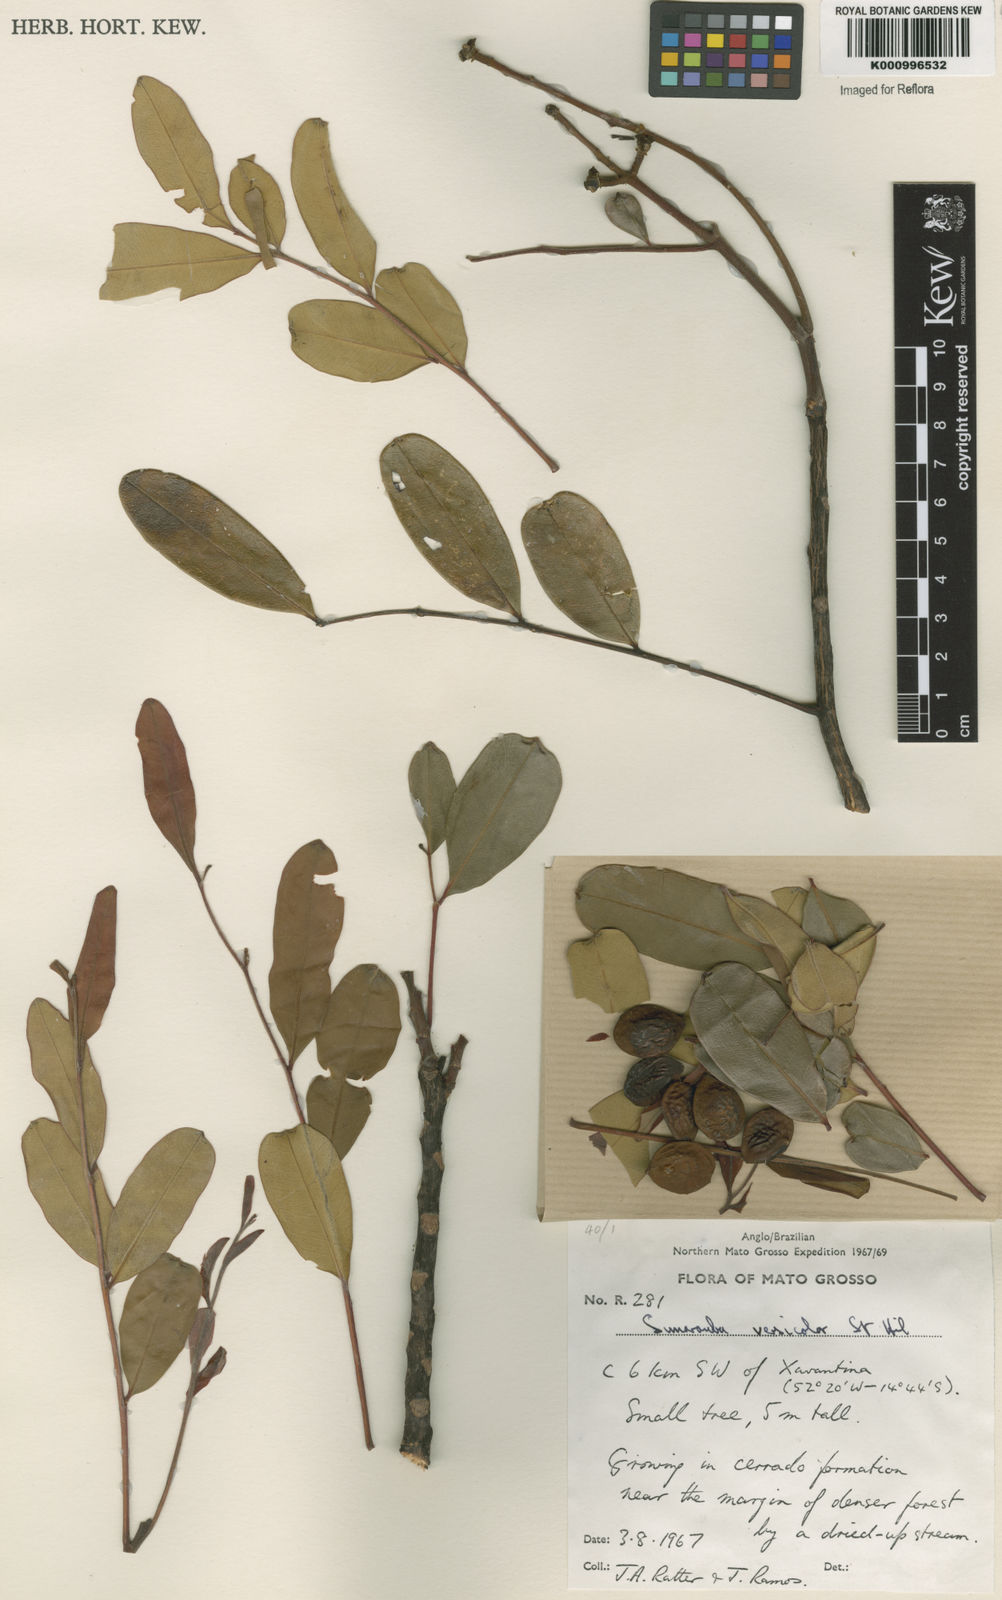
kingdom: Plantae
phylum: Tracheophyta
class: Magnoliopsida
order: Sapindales
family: Simaroubaceae
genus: Simarouba
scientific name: Simarouba versicolor
